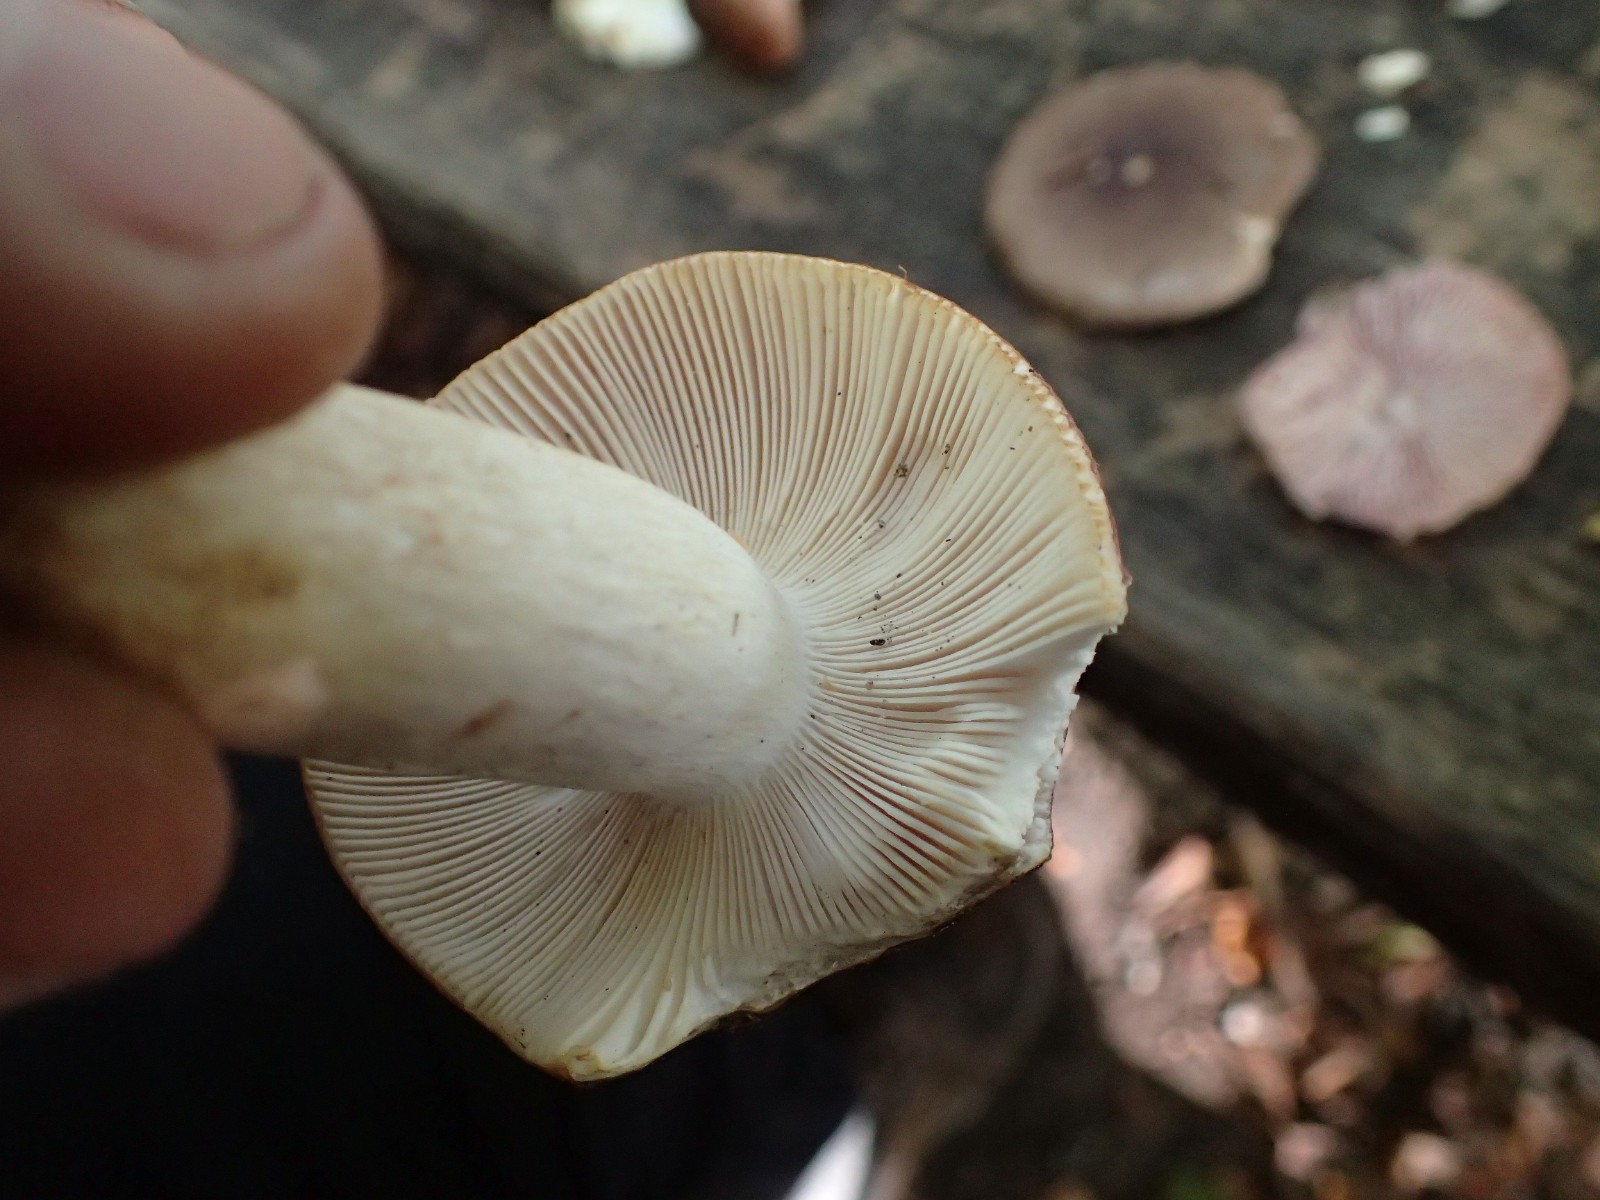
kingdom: Fungi
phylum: Basidiomycota
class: Agaricomycetes
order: Russulales
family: Russulaceae
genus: Russula
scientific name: Russula vesca
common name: spiselig skørhat
